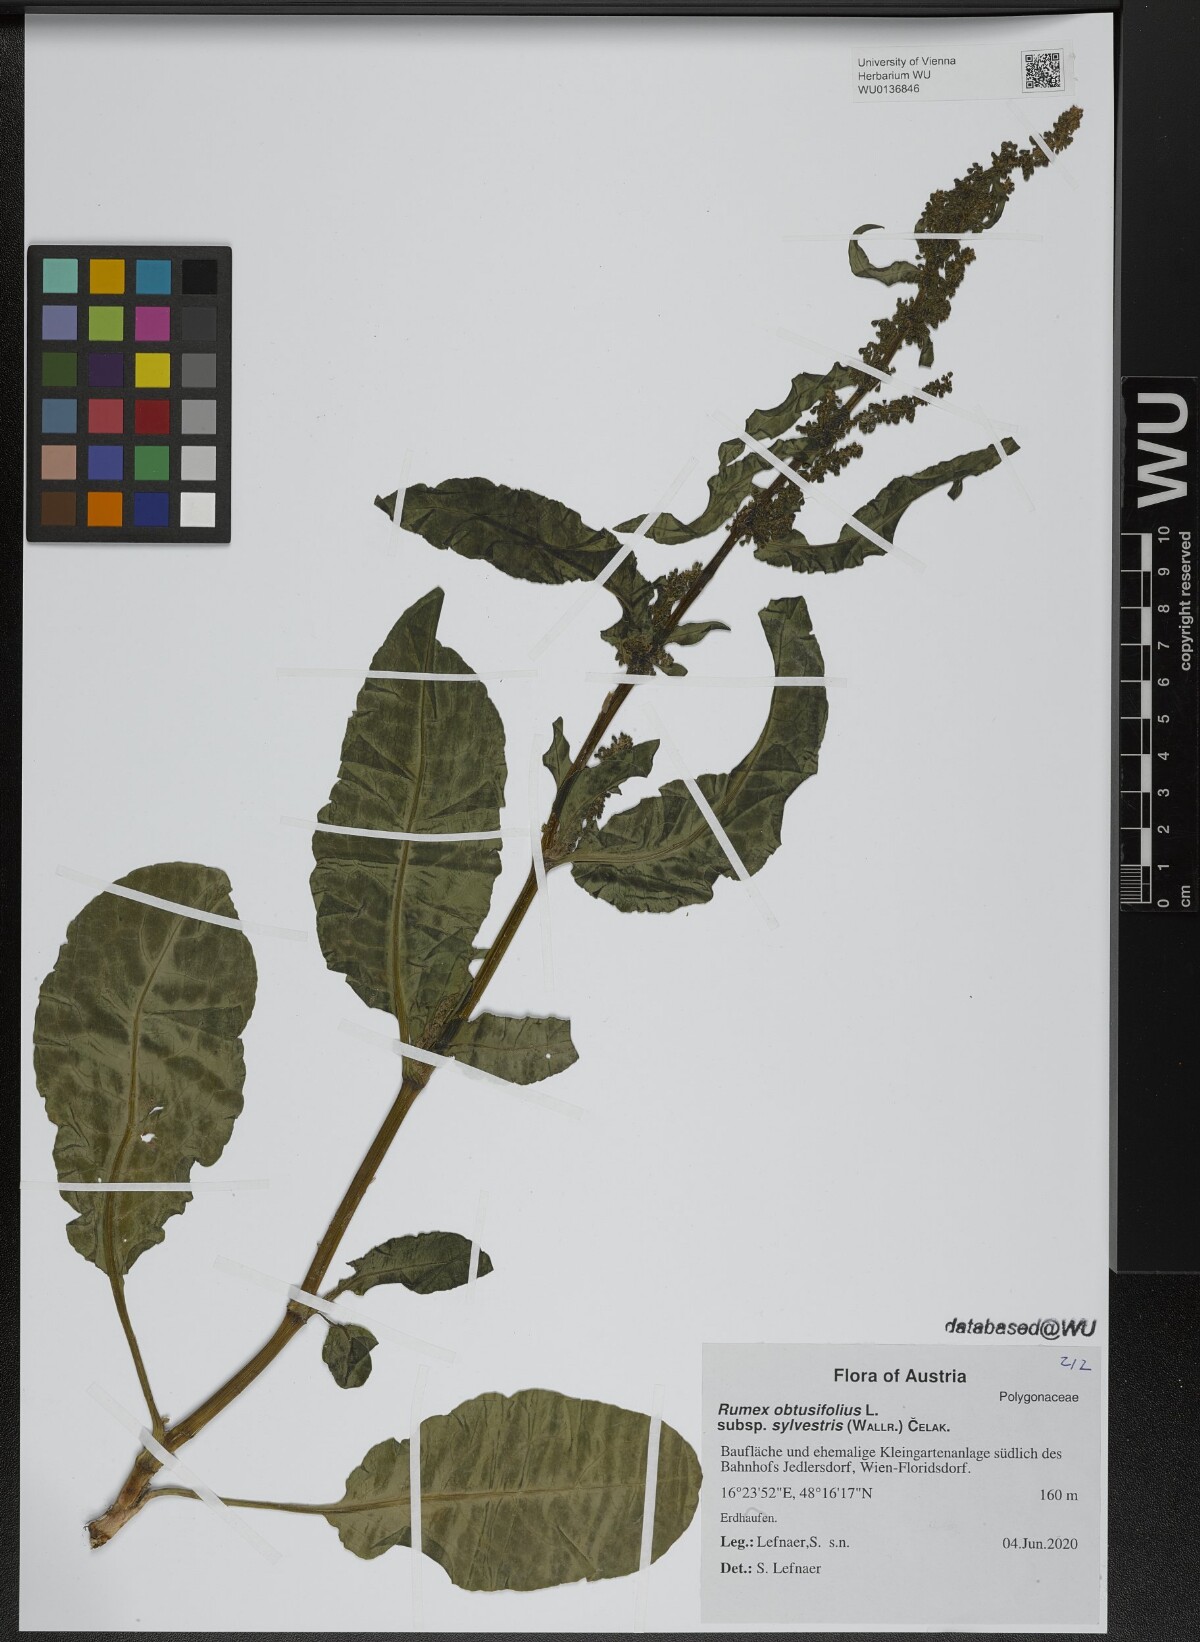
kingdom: Plantae
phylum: Tracheophyta
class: Magnoliopsida
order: Caryophyllales
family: Polygonaceae
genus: Rumex
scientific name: Rumex obtusifolius
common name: Bitter dock
